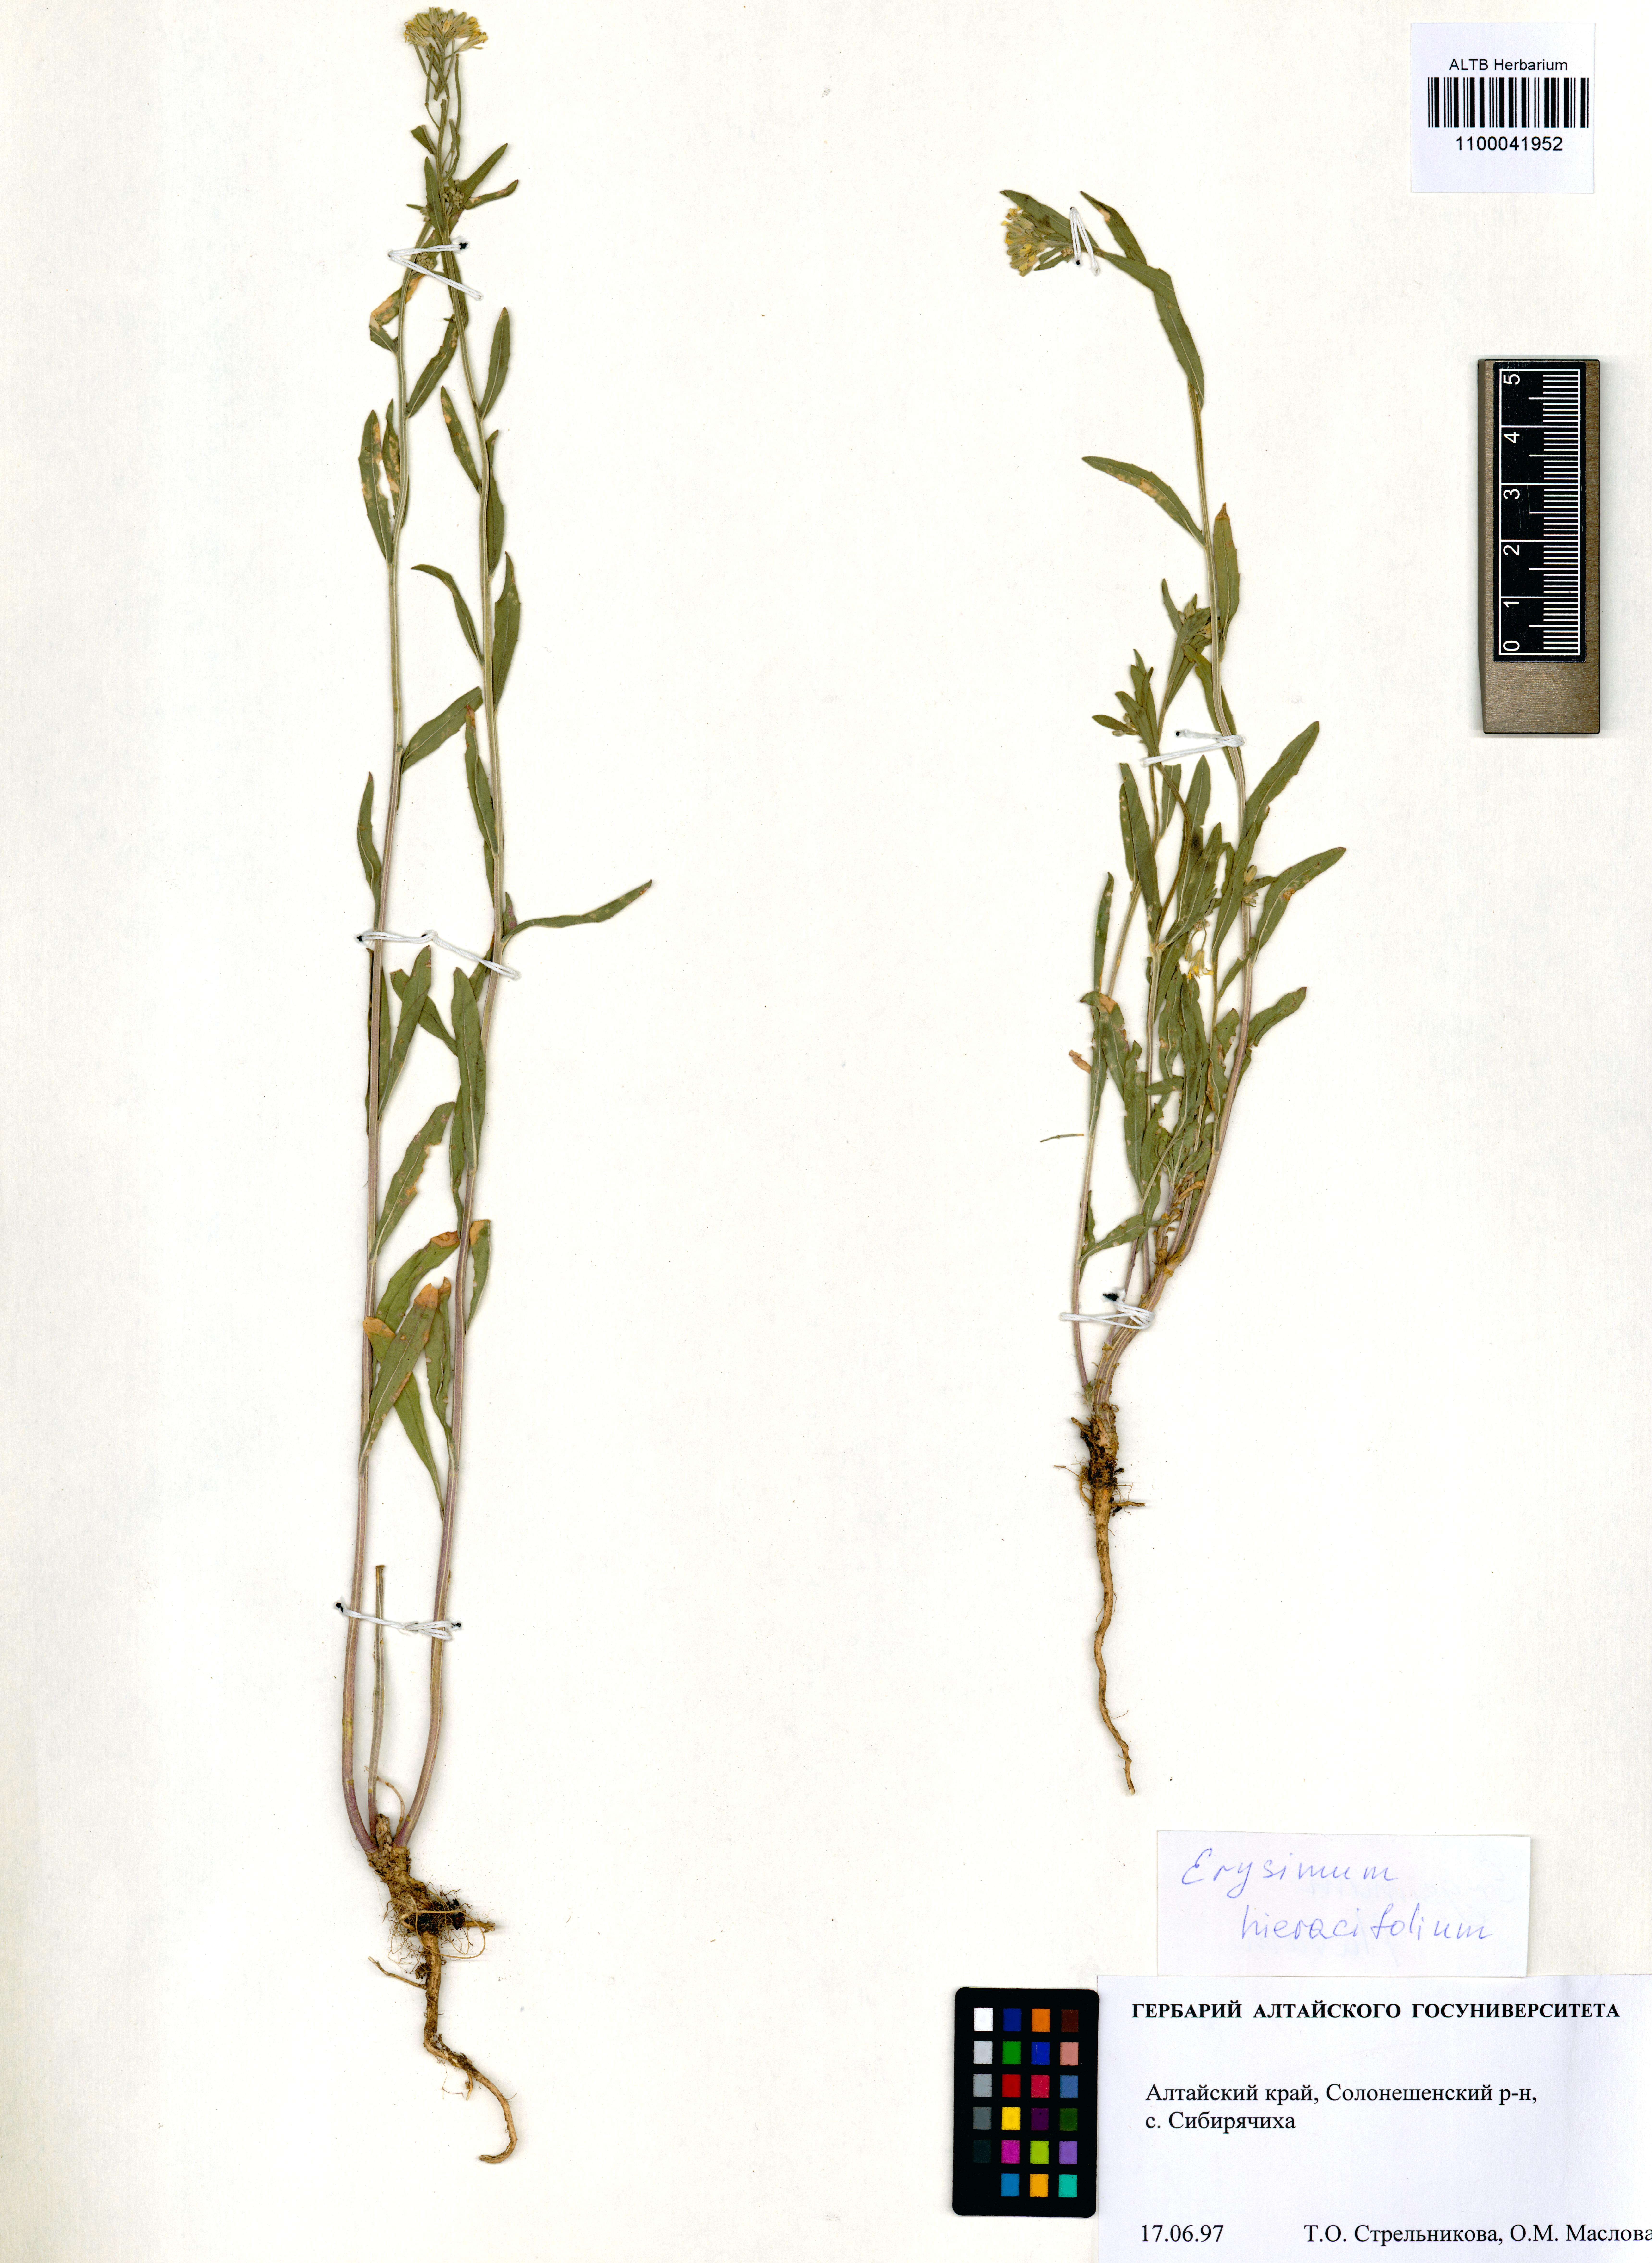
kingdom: Plantae
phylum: Tracheophyta
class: Magnoliopsida
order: Brassicales
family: Brassicaceae
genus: Erysimum
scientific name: Erysimum hieraciifolium
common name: European wallflower
